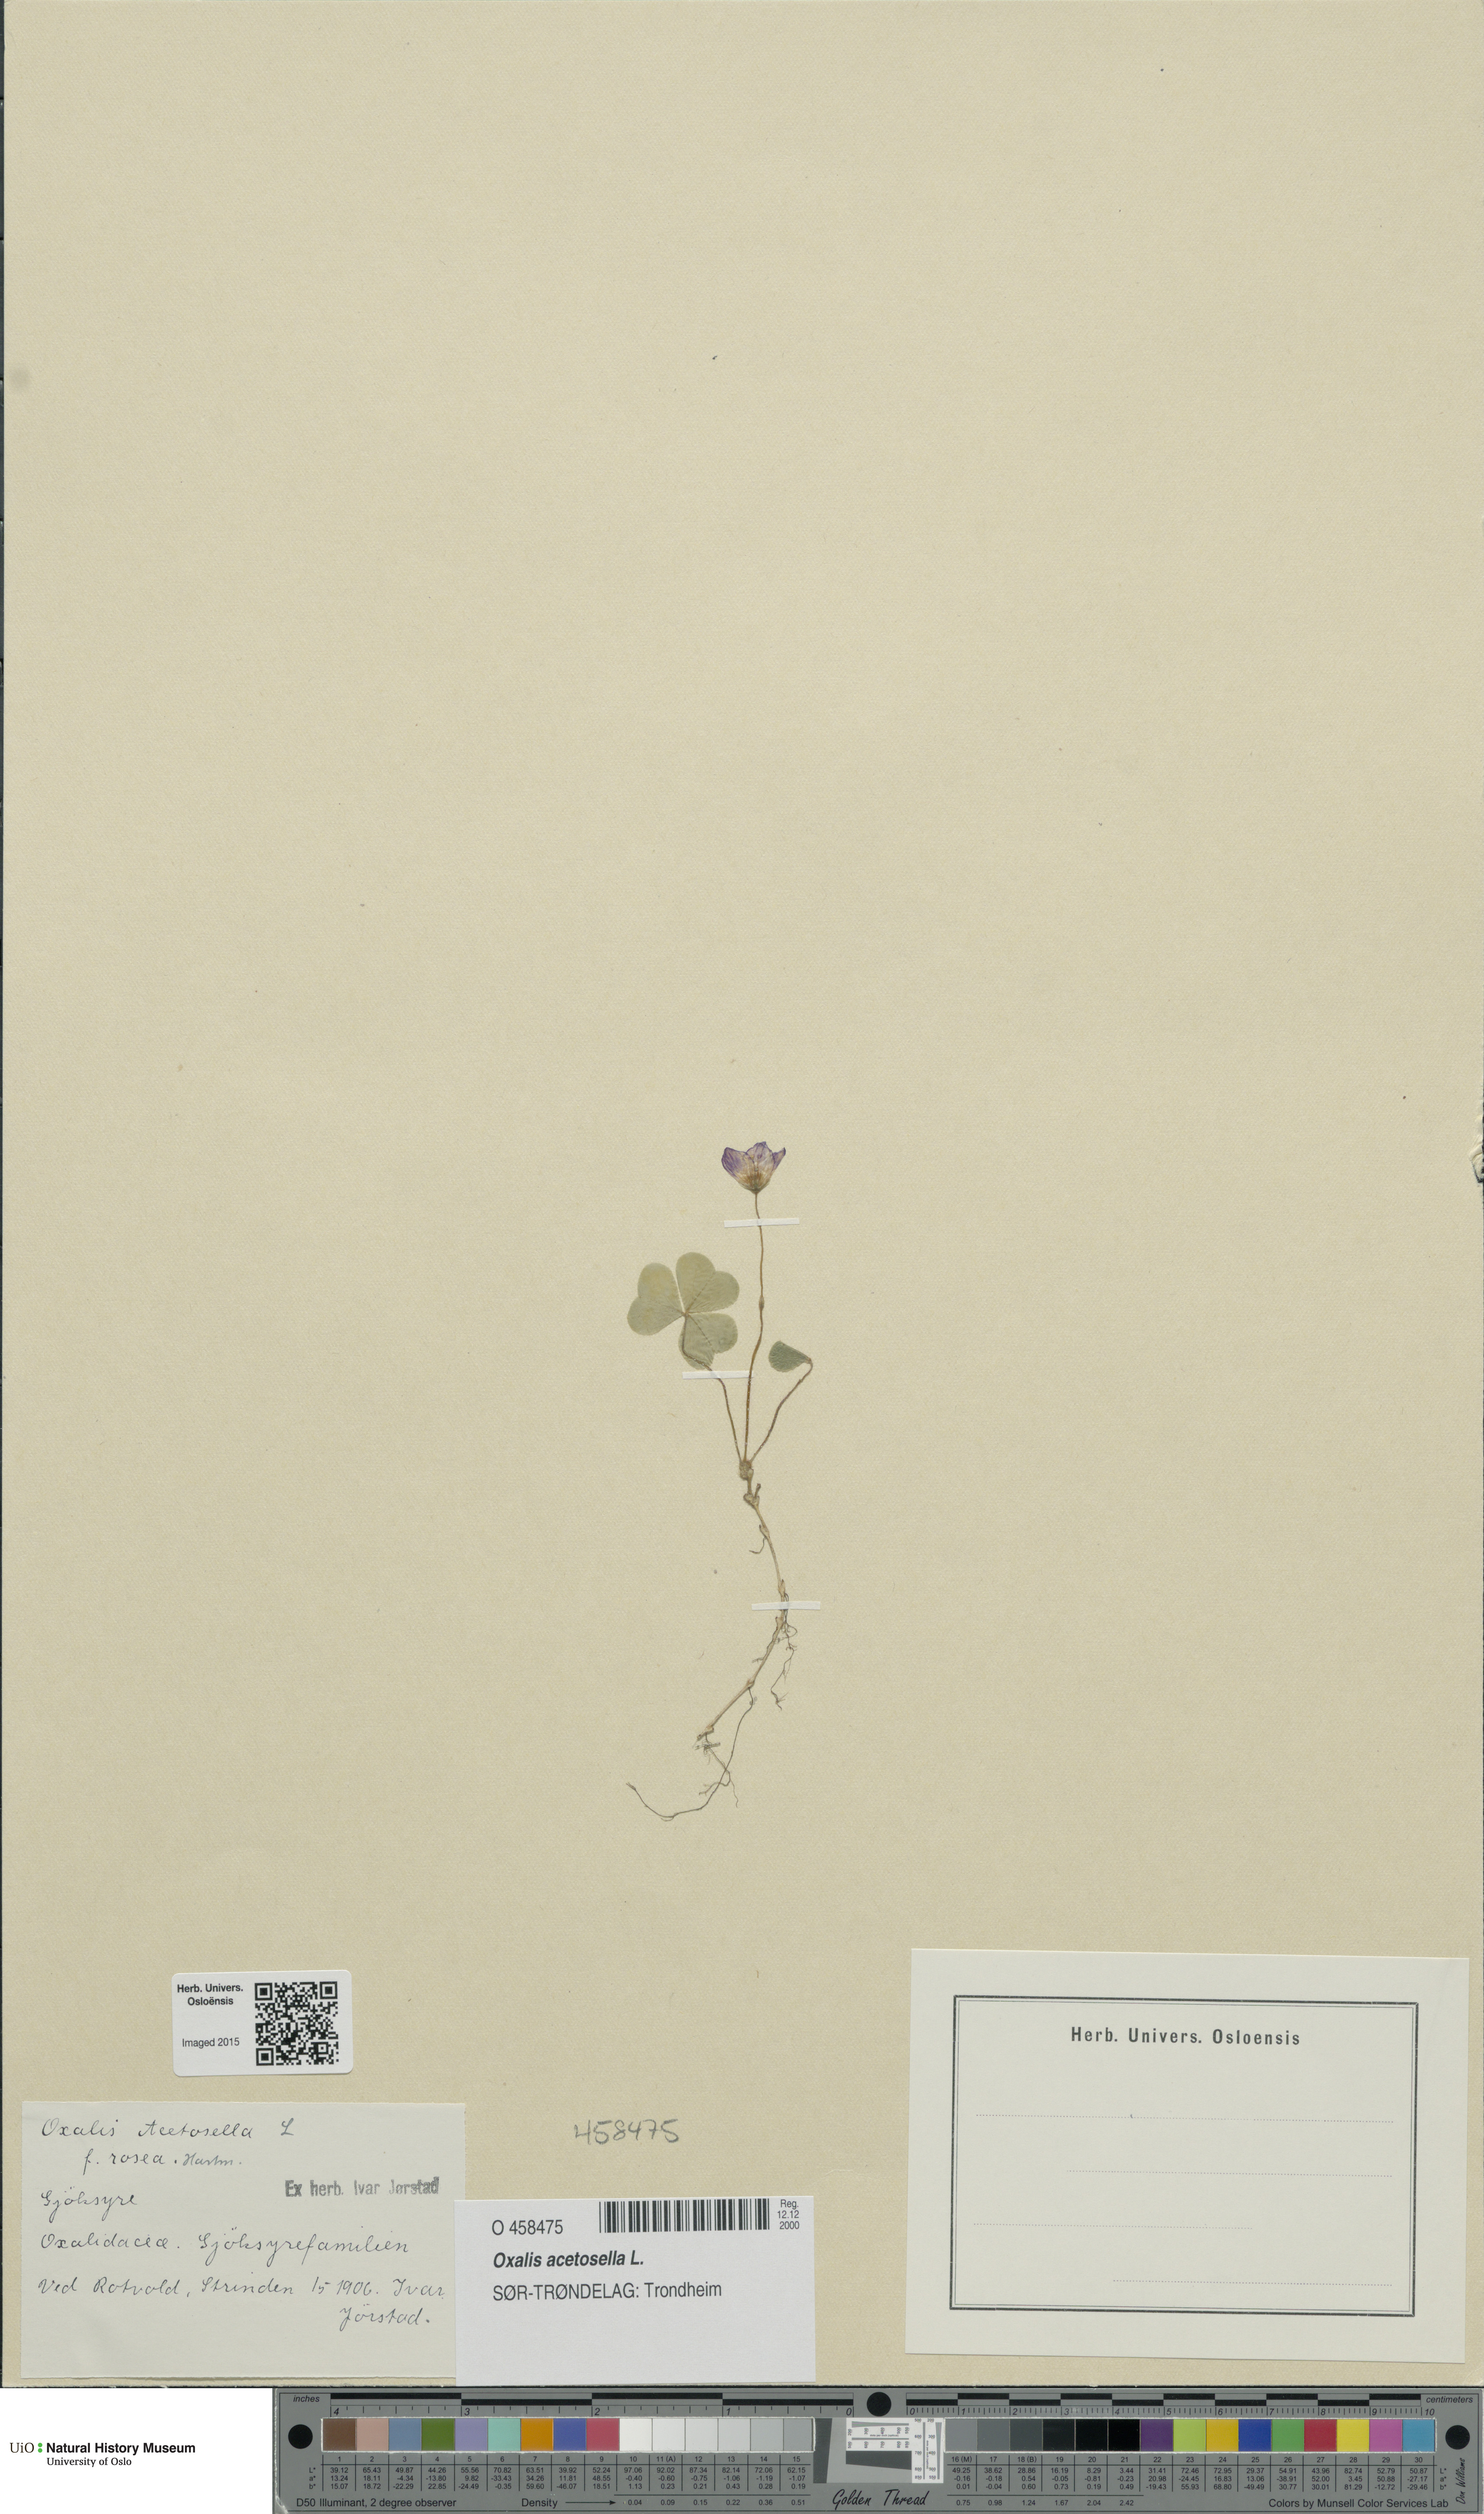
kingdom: Plantae
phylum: Tracheophyta
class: Magnoliopsida
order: Oxalidales
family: Oxalidaceae
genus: Oxalis
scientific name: Oxalis acetosella
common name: Wood-sorrel
